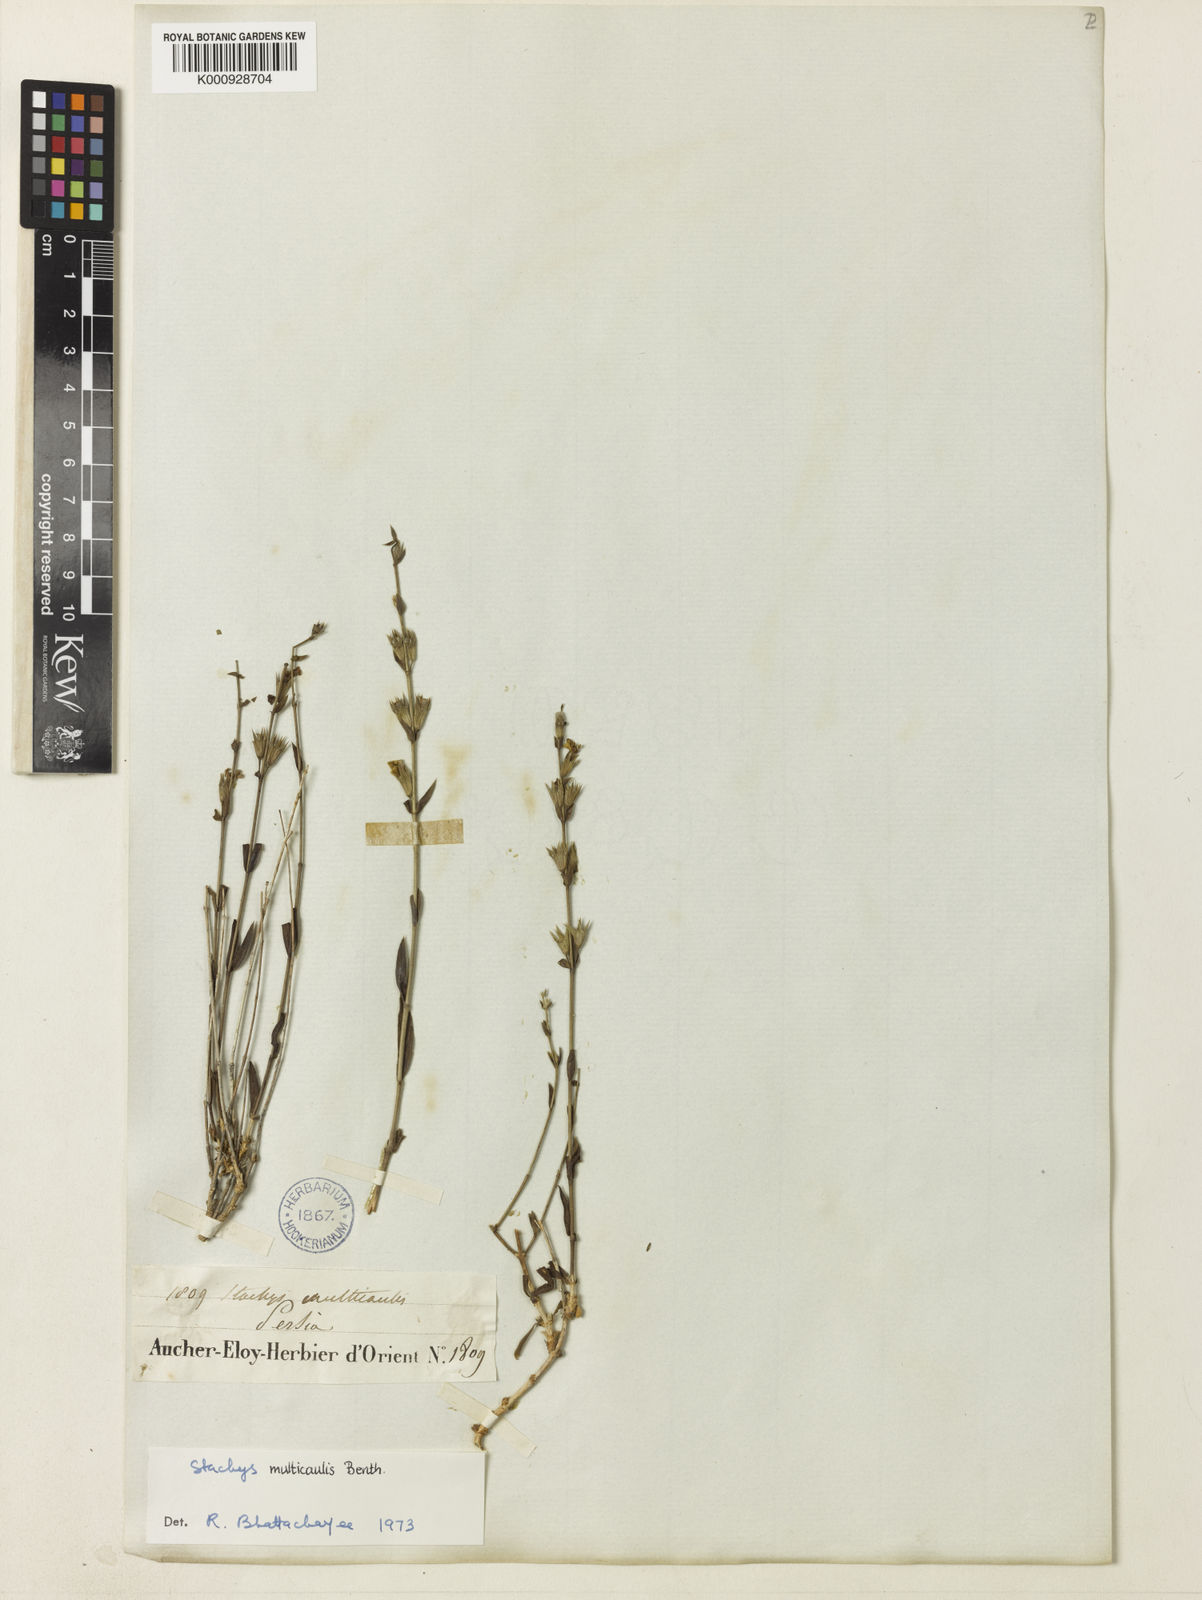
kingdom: Plantae
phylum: Tracheophyta
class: Magnoliopsida
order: Lamiales
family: Lamiaceae
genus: Stachys
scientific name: Stachys multicaulis
